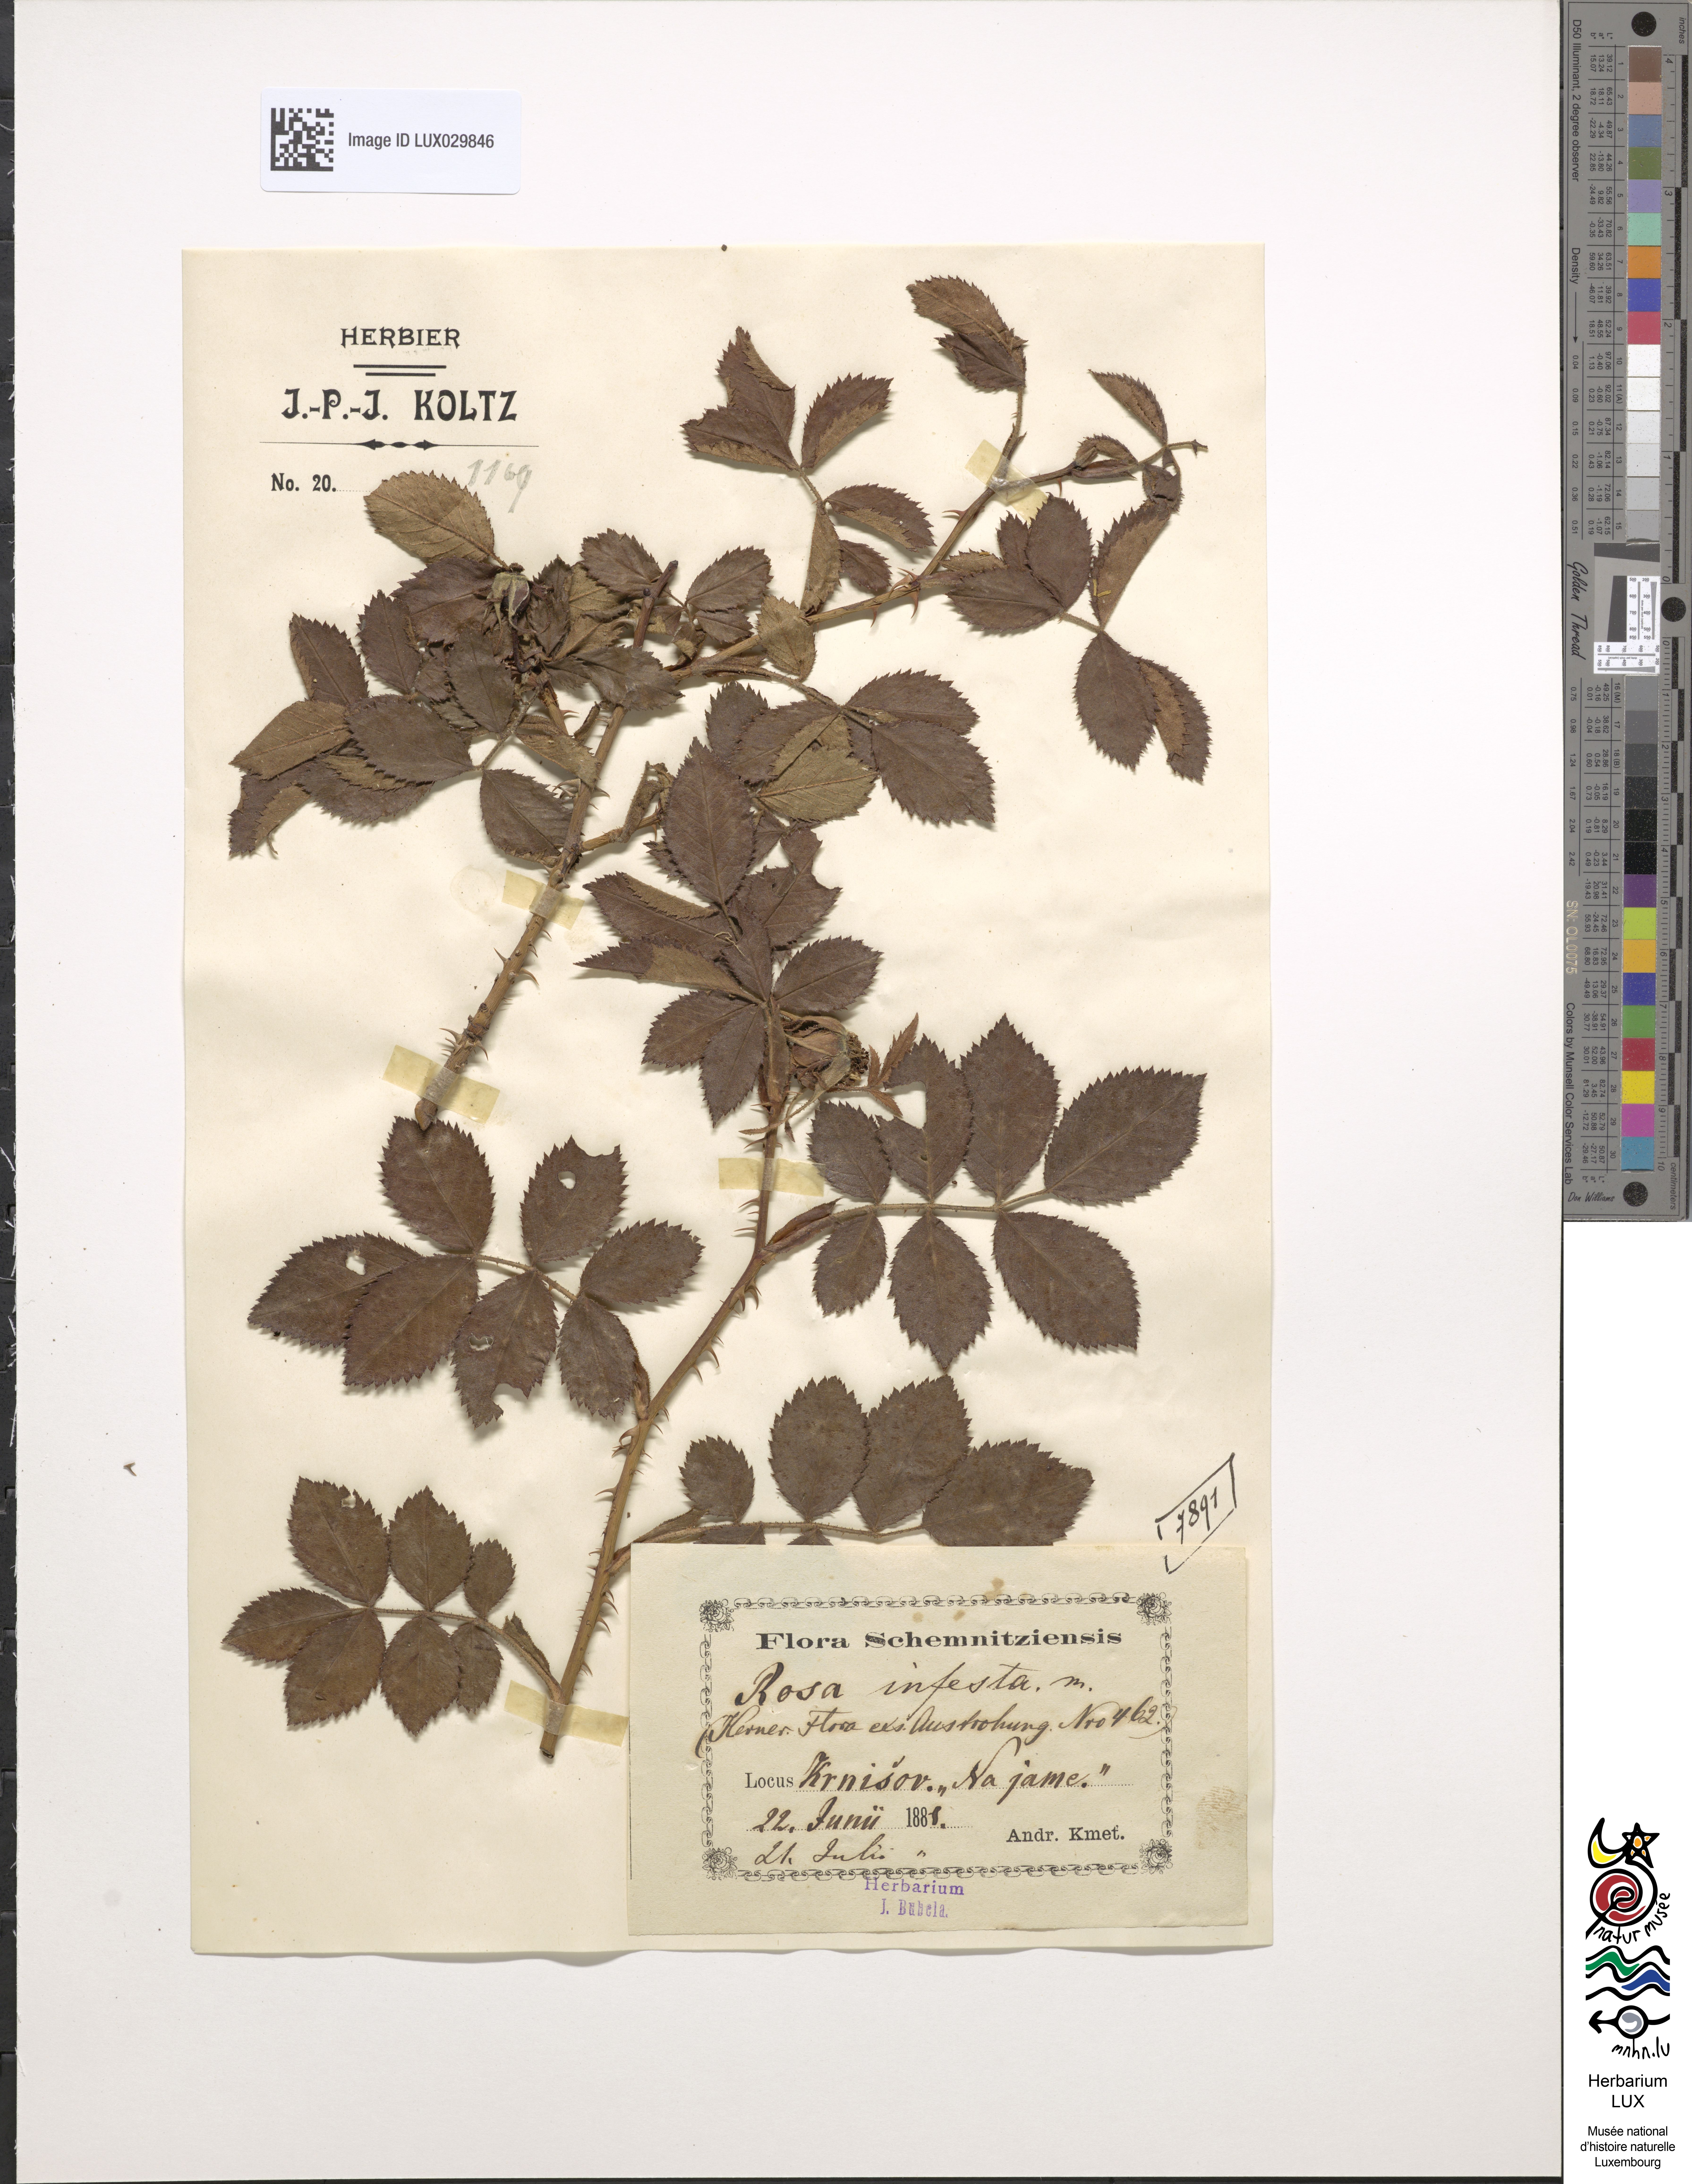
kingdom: Plantae
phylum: Tracheophyta
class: Magnoliopsida
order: Rosales
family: Rosaceae
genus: Rosa
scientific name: Rosa inserta
